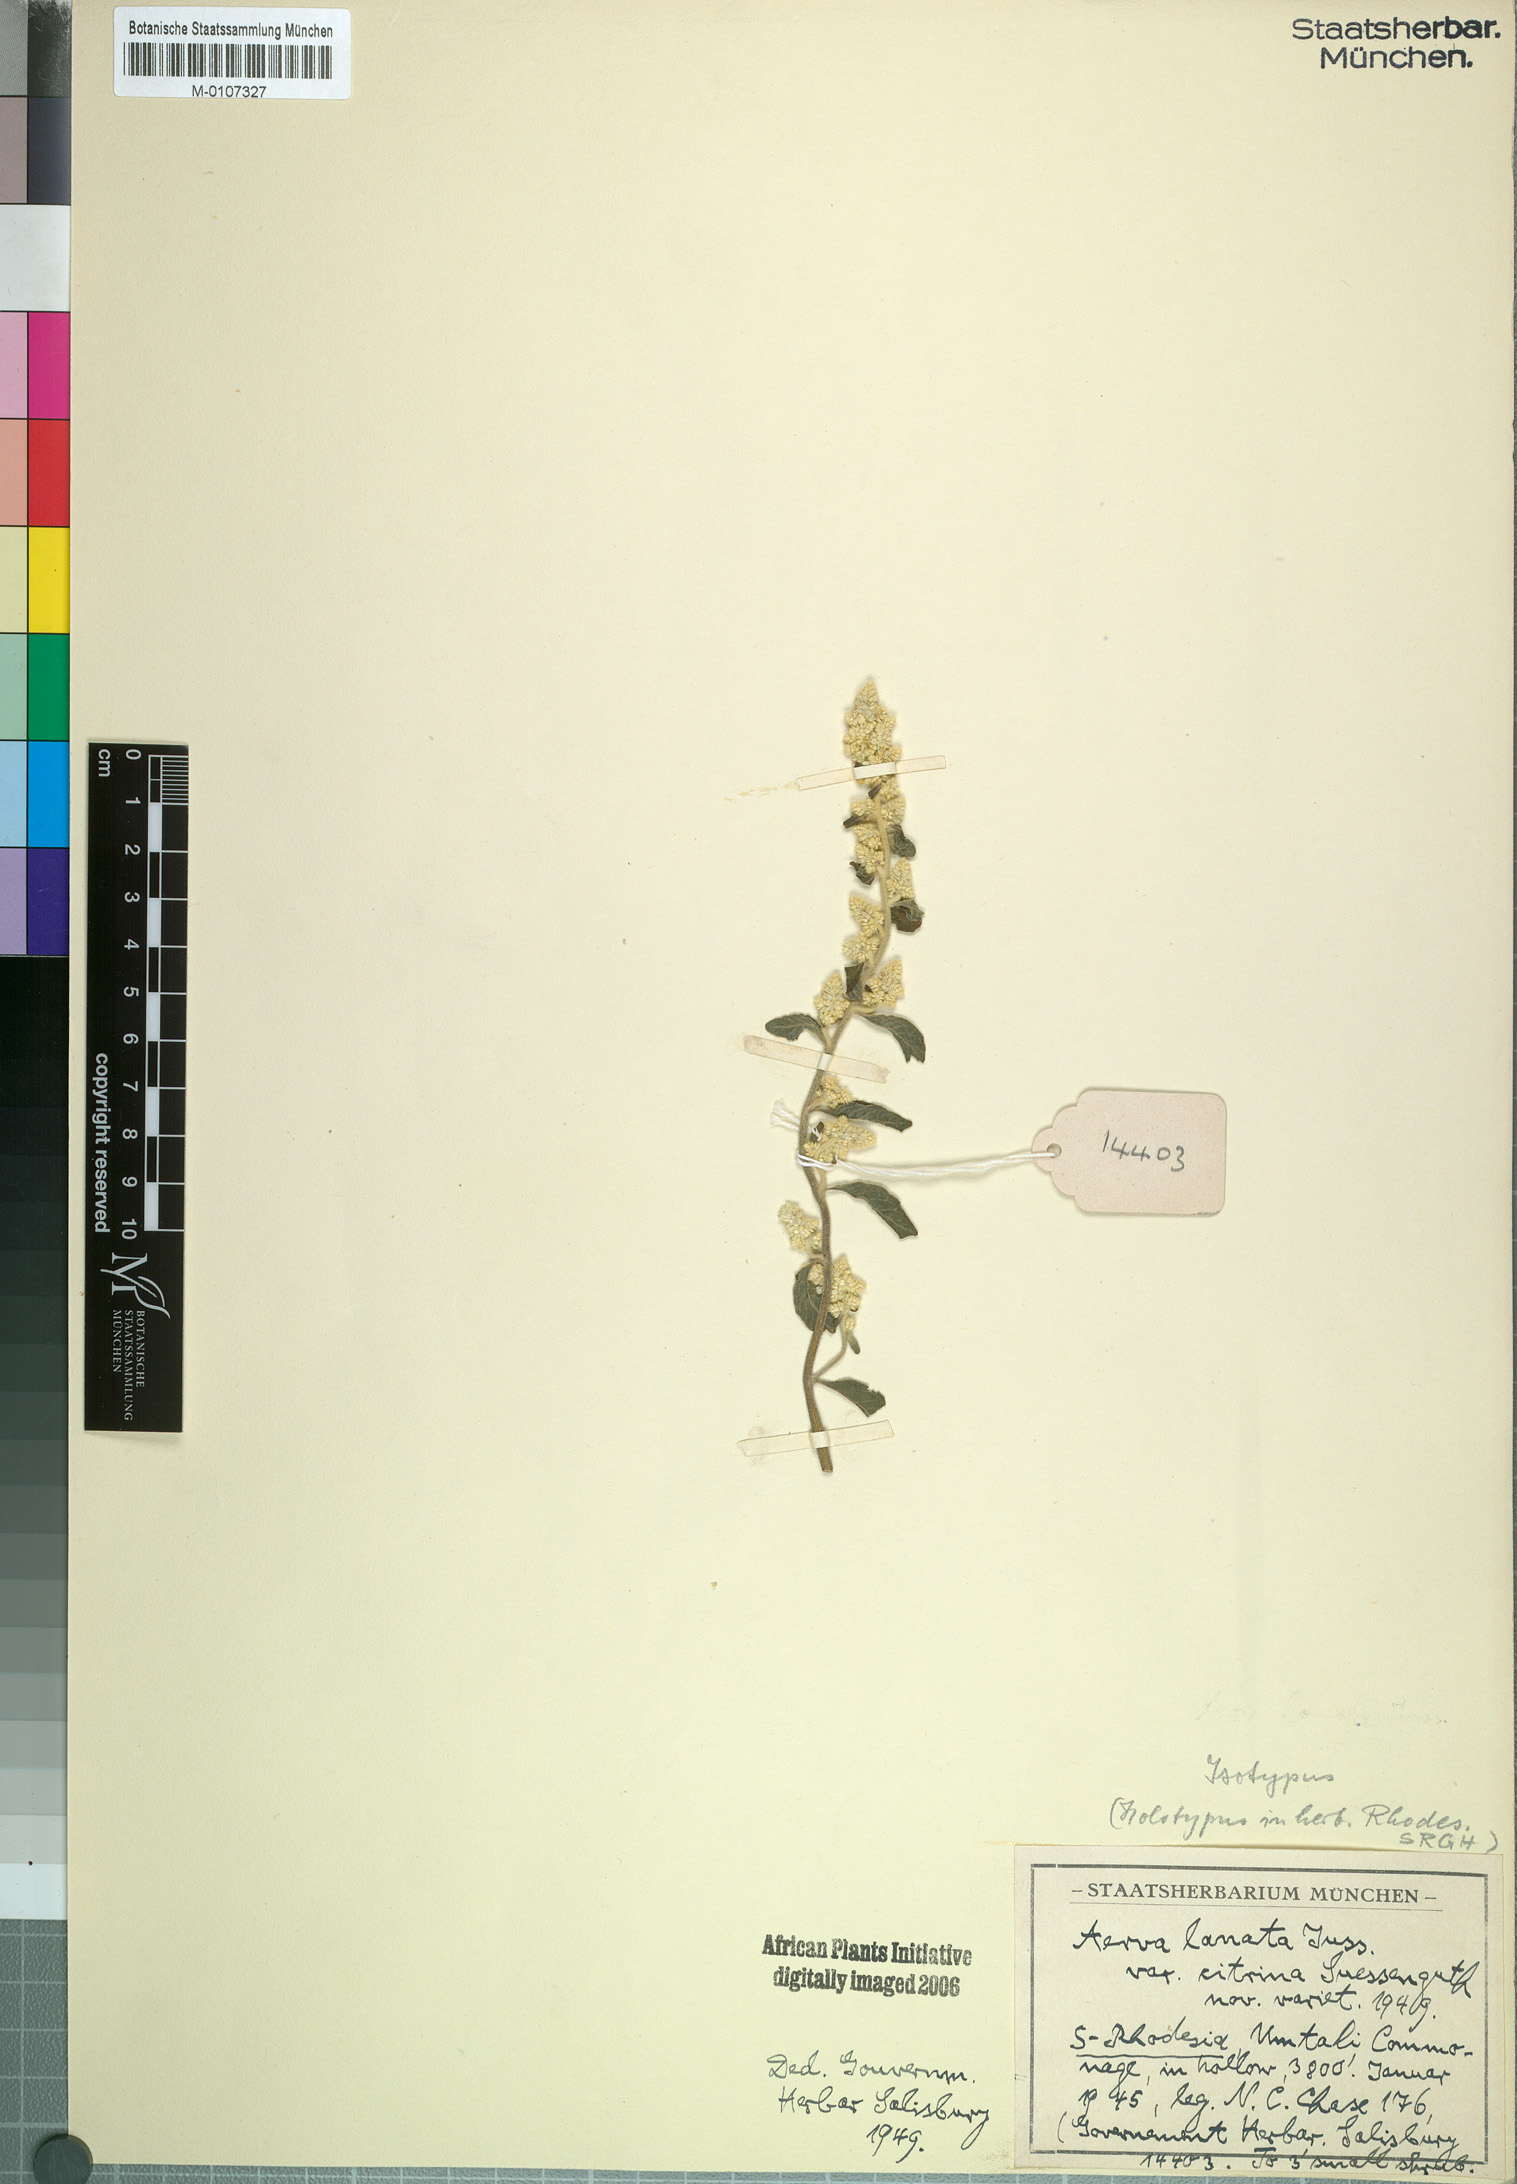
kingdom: Plantae
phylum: Tracheophyta
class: Magnoliopsida
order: Caryophyllales
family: Amaranthaceae
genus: Ouret
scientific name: Ouret lanata
